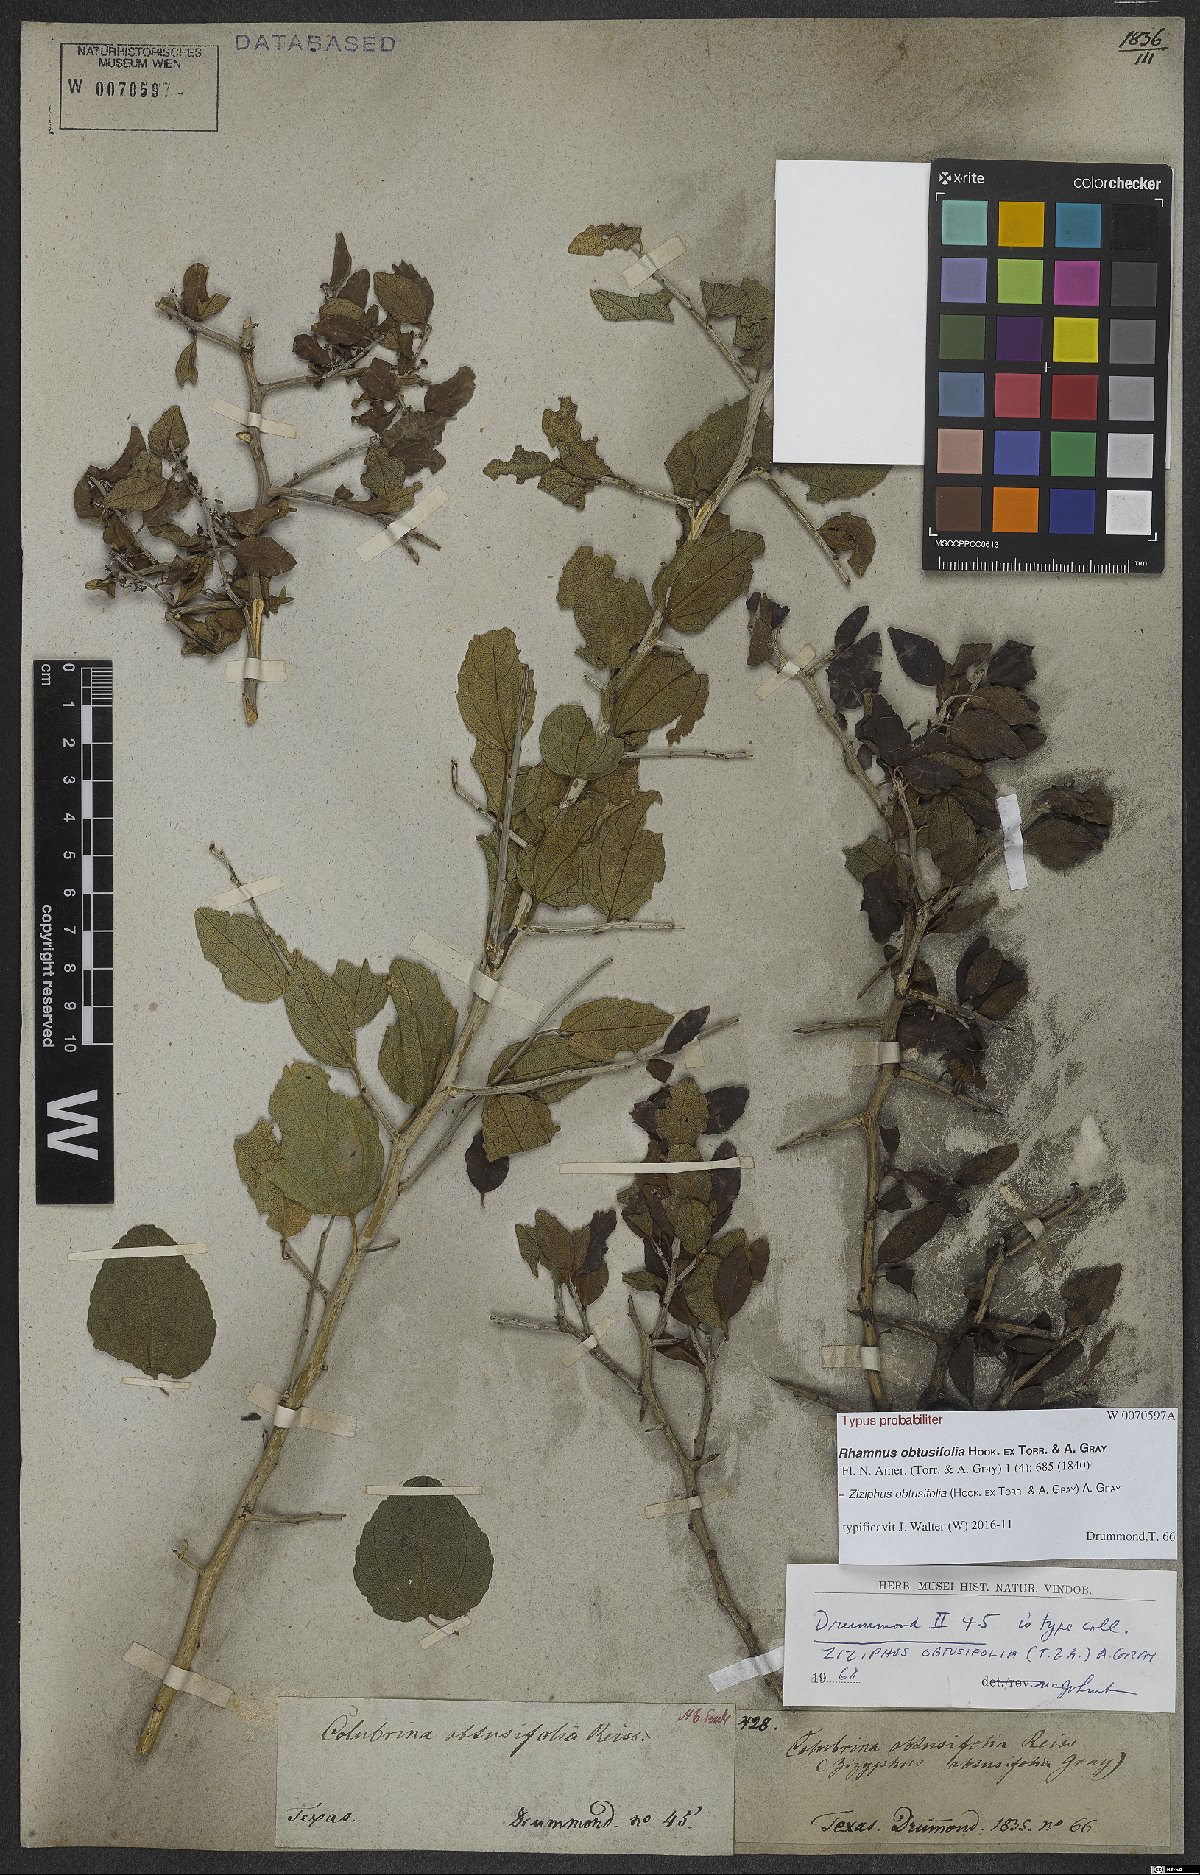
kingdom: Plantae
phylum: Tracheophyta
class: Magnoliopsida
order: Rosales
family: Rhamnaceae
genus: Sarcomphalus
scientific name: Sarcomphalus obtusifolius
